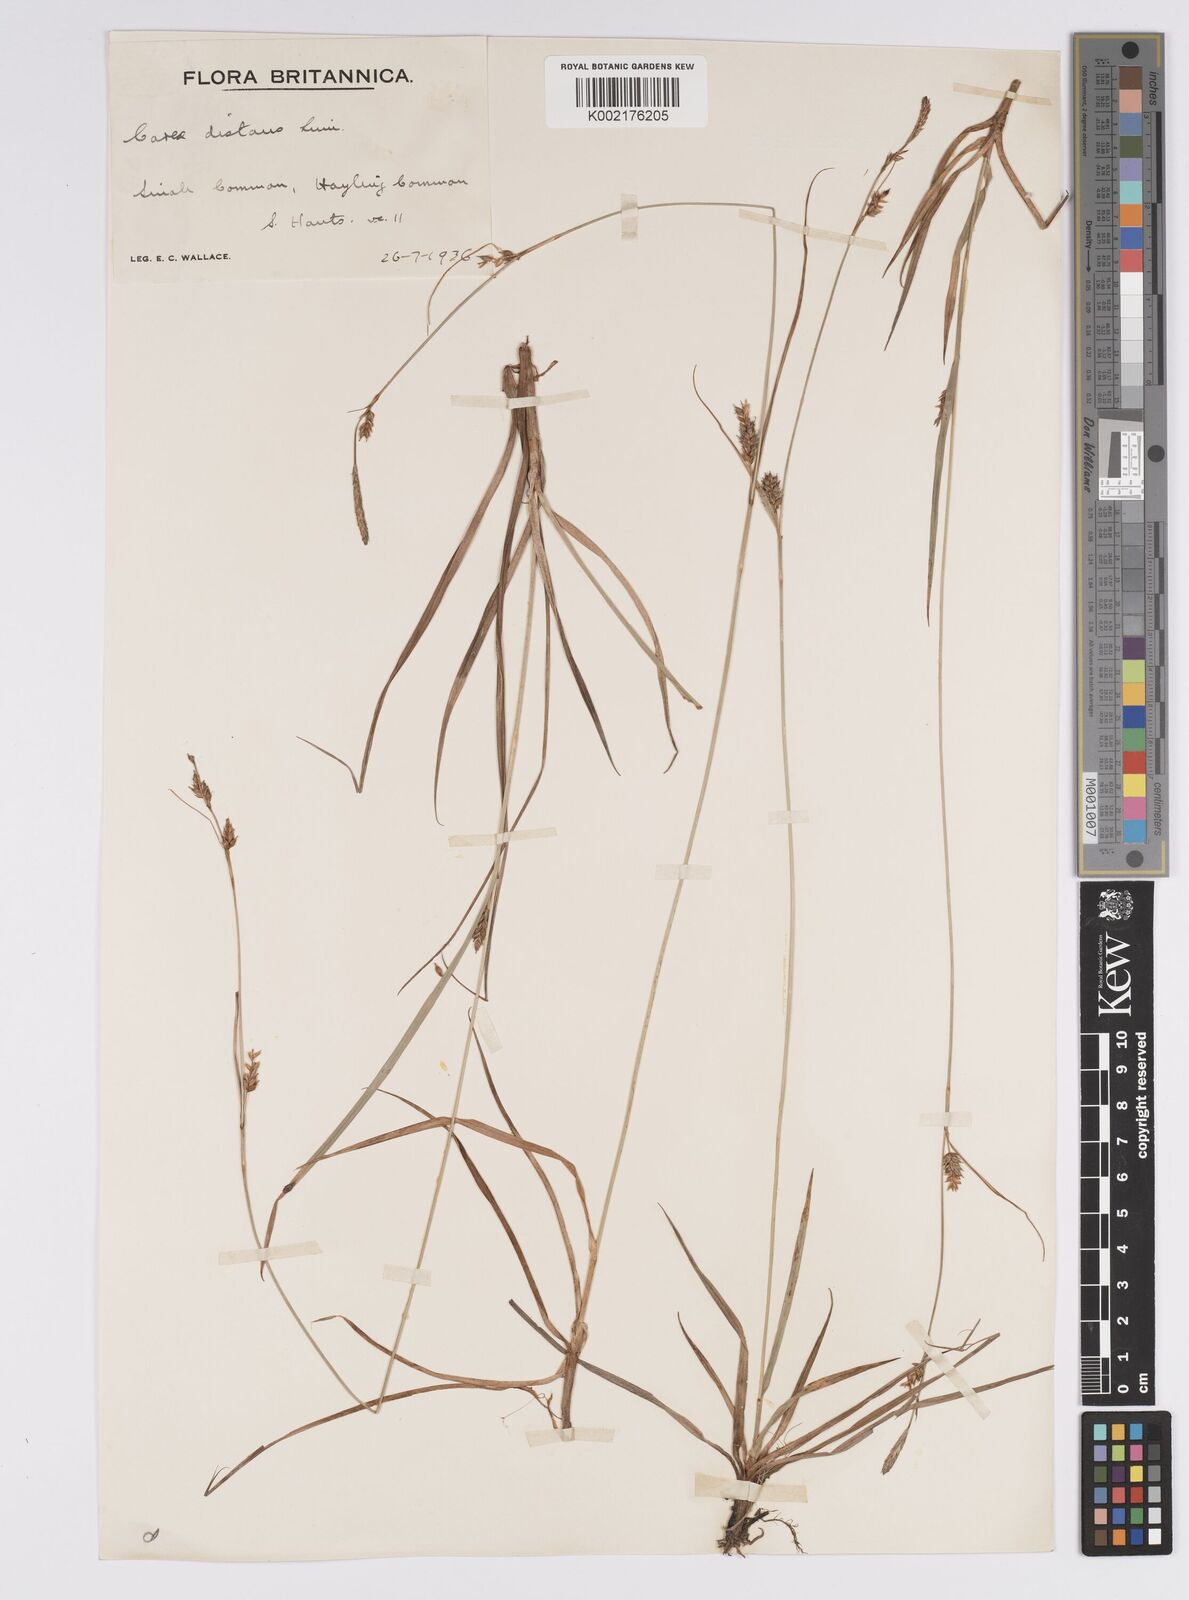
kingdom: Plantae
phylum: Tracheophyta
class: Liliopsida
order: Poales
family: Cyperaceae
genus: Carex
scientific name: Carex distans
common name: Distant sedge
